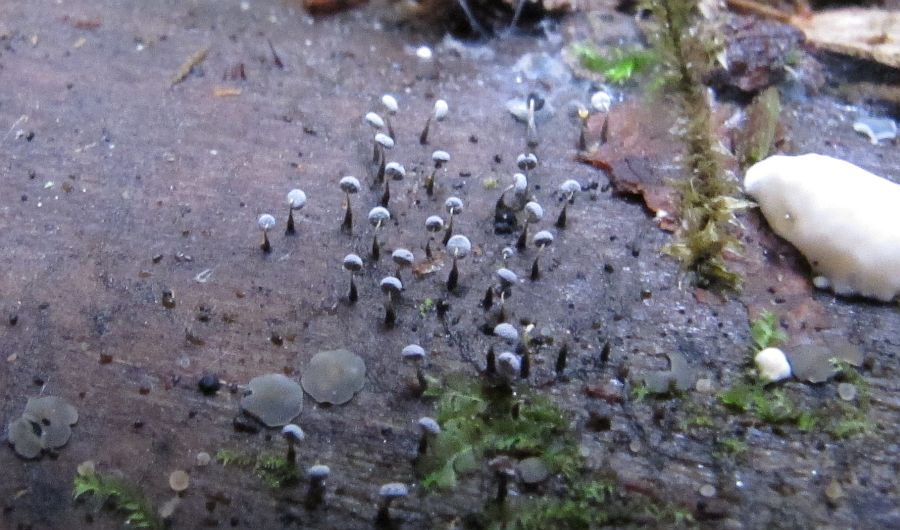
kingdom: Protozoa
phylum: Mycetozoa
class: Myxomycetes
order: Physarales
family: Physaraceae
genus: Physarum
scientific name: Physarum album
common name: nikkende støvknop
